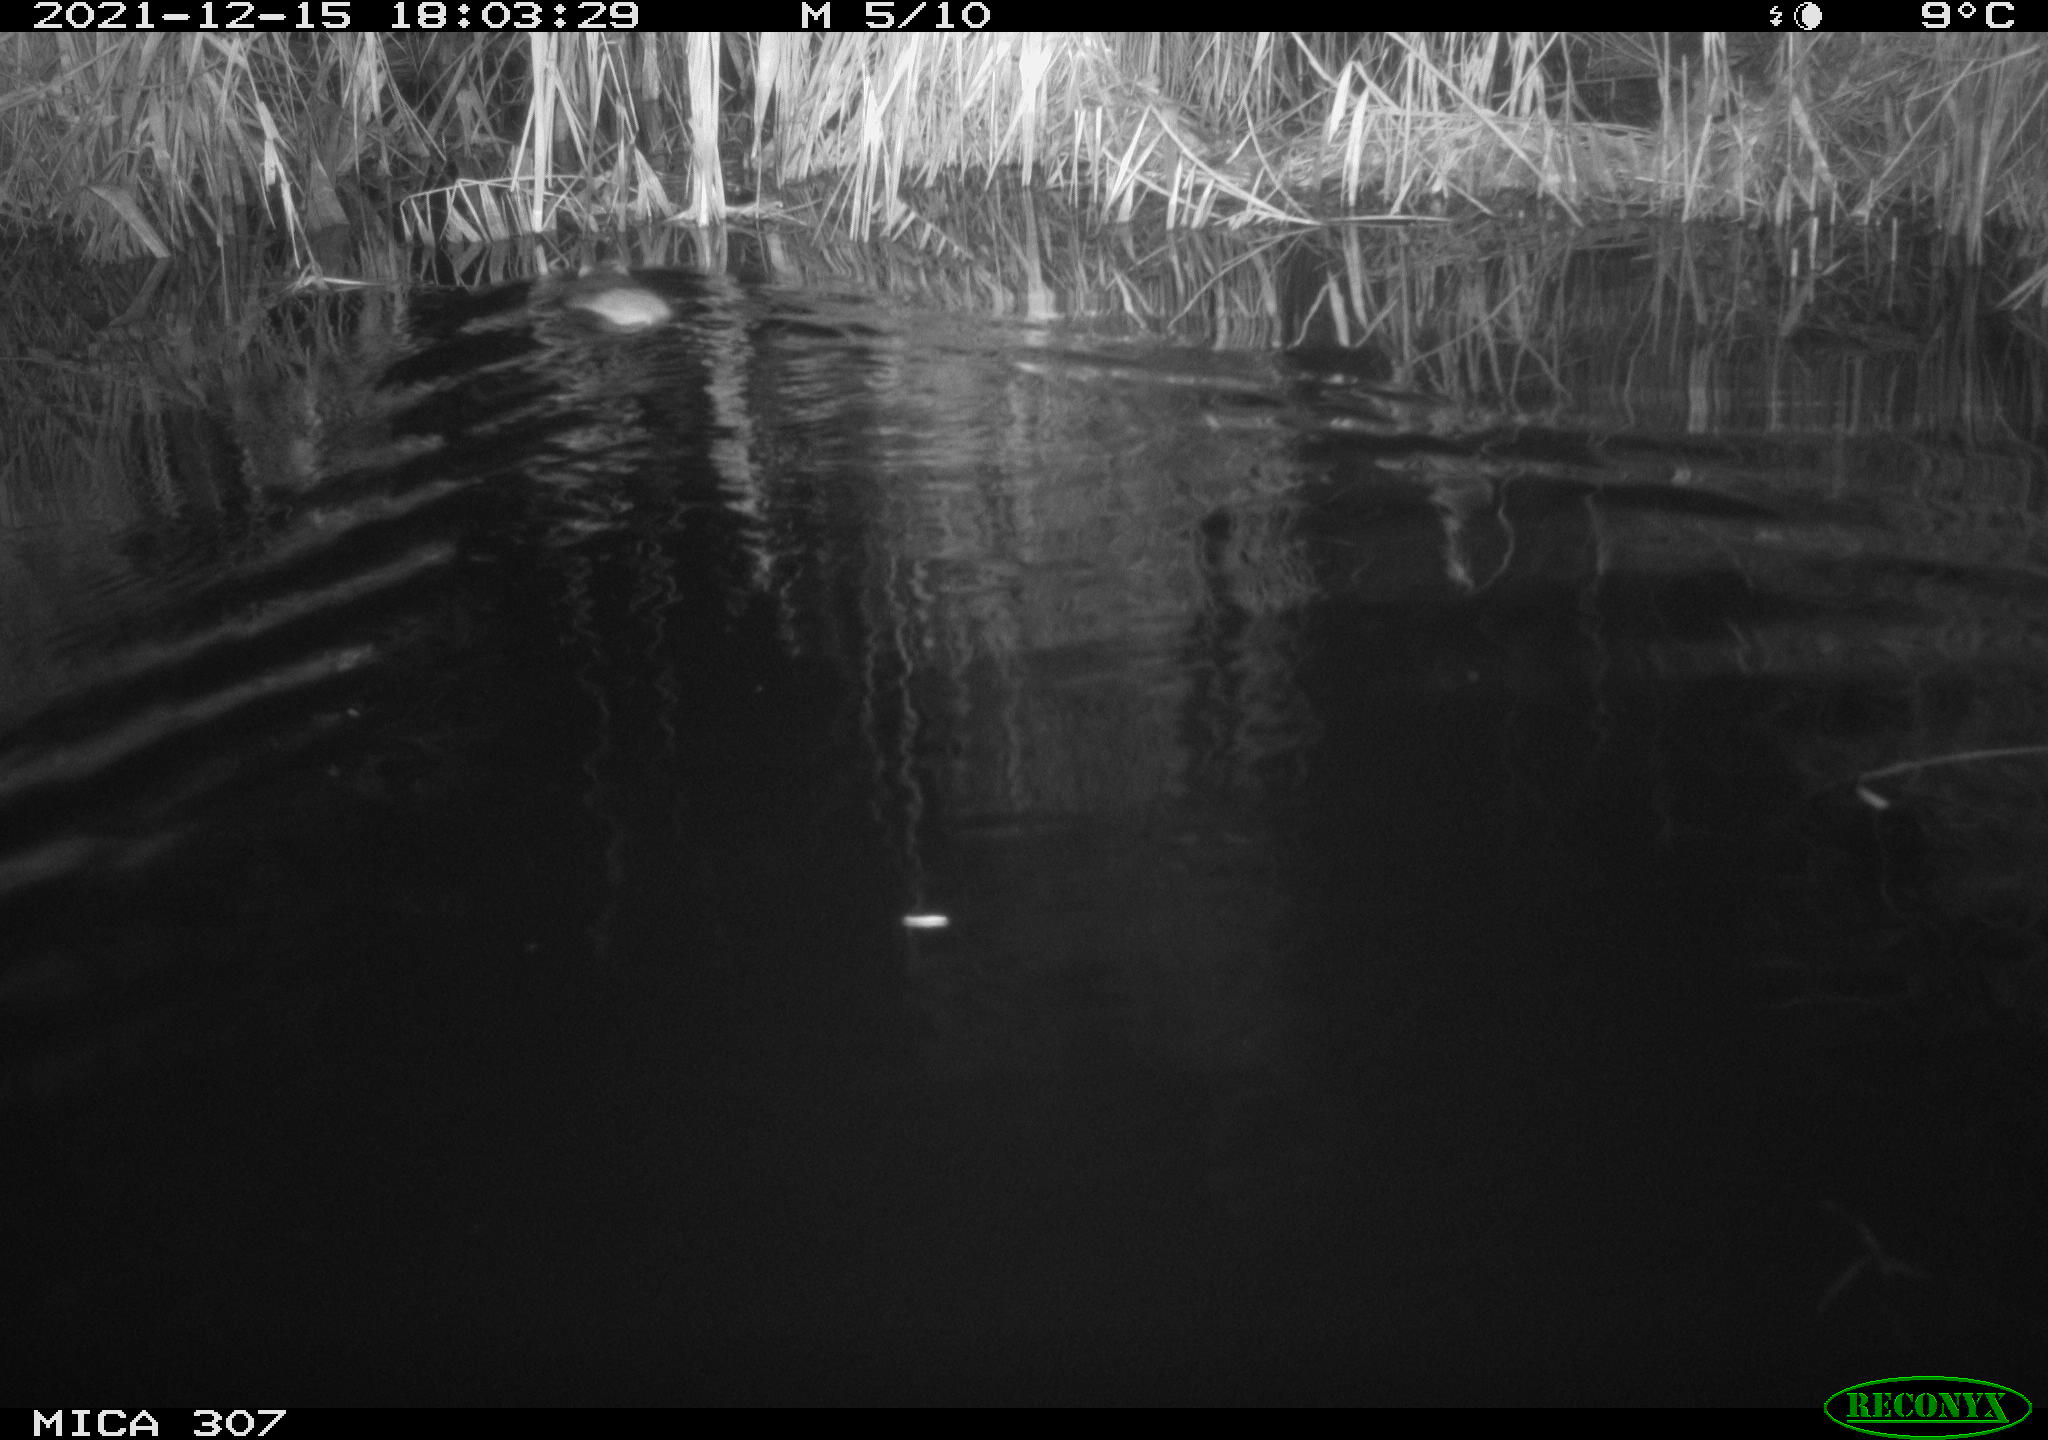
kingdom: Animalia
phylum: Chordata
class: Mammalia
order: Rodentia
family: Muridae
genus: Rattus
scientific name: Rattus norvegicus
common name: Brown rat
